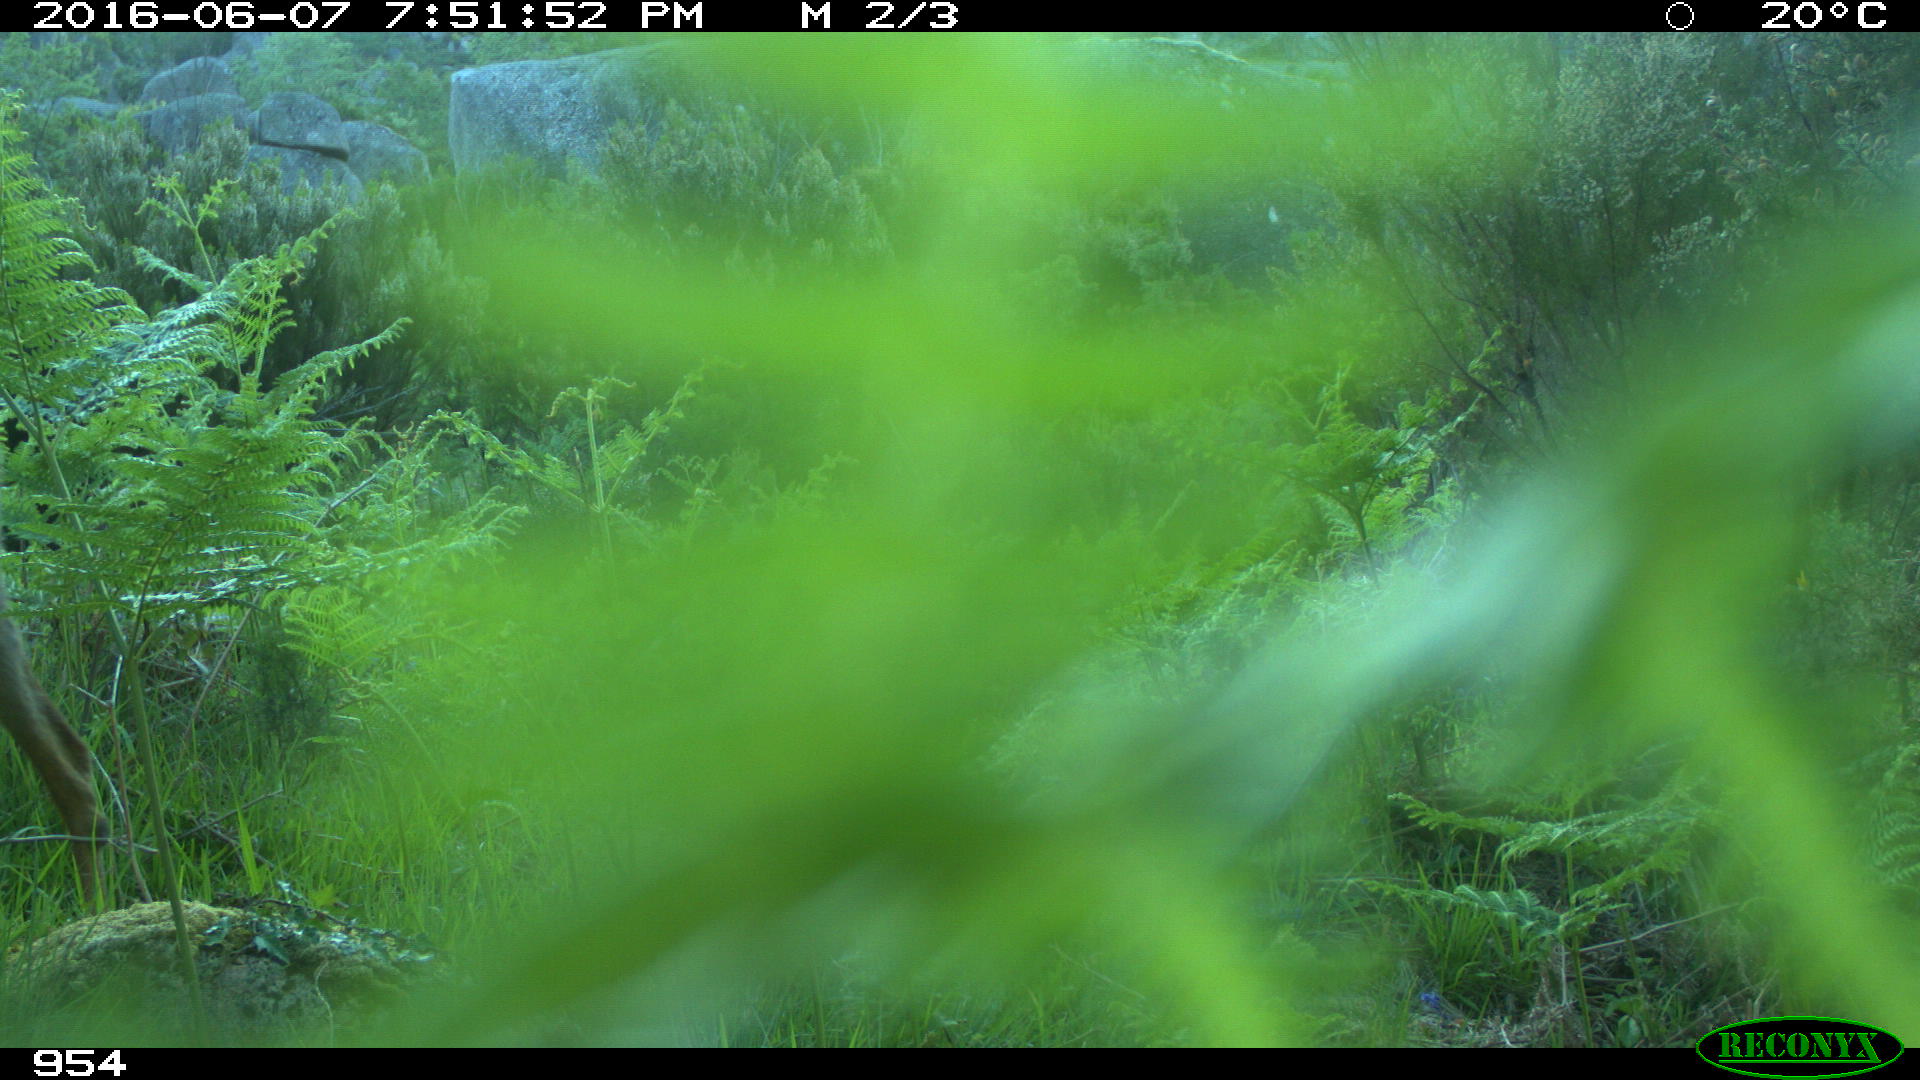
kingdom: Animalia
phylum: Chordata
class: Mammalia
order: Artiodactyla
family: Cervidae
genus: Capreolus
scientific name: Capreolus capreolus
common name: Western roe deer
